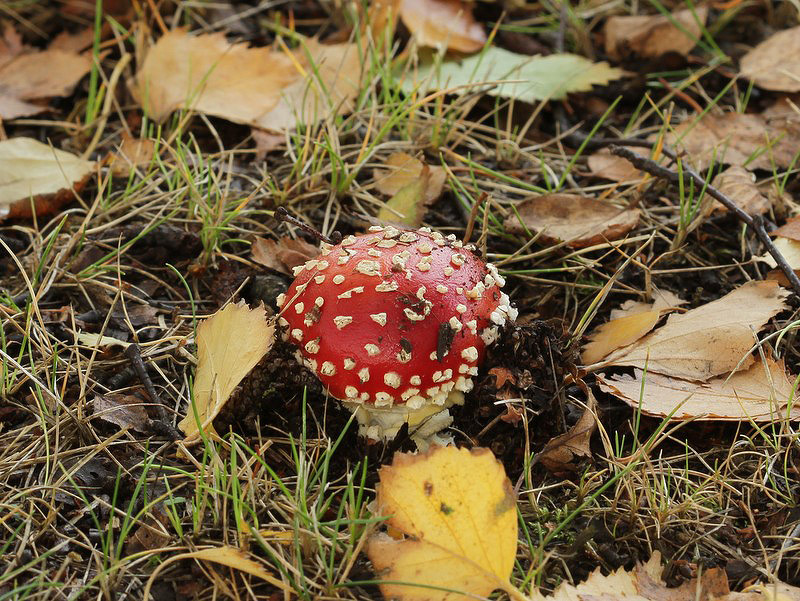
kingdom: Fungi
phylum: Basidiomycota
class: Agaricomycetes
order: Agaricales
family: Amanitaceae
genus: Amanita
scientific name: Amanita muscaria
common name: rød fluesvamp
